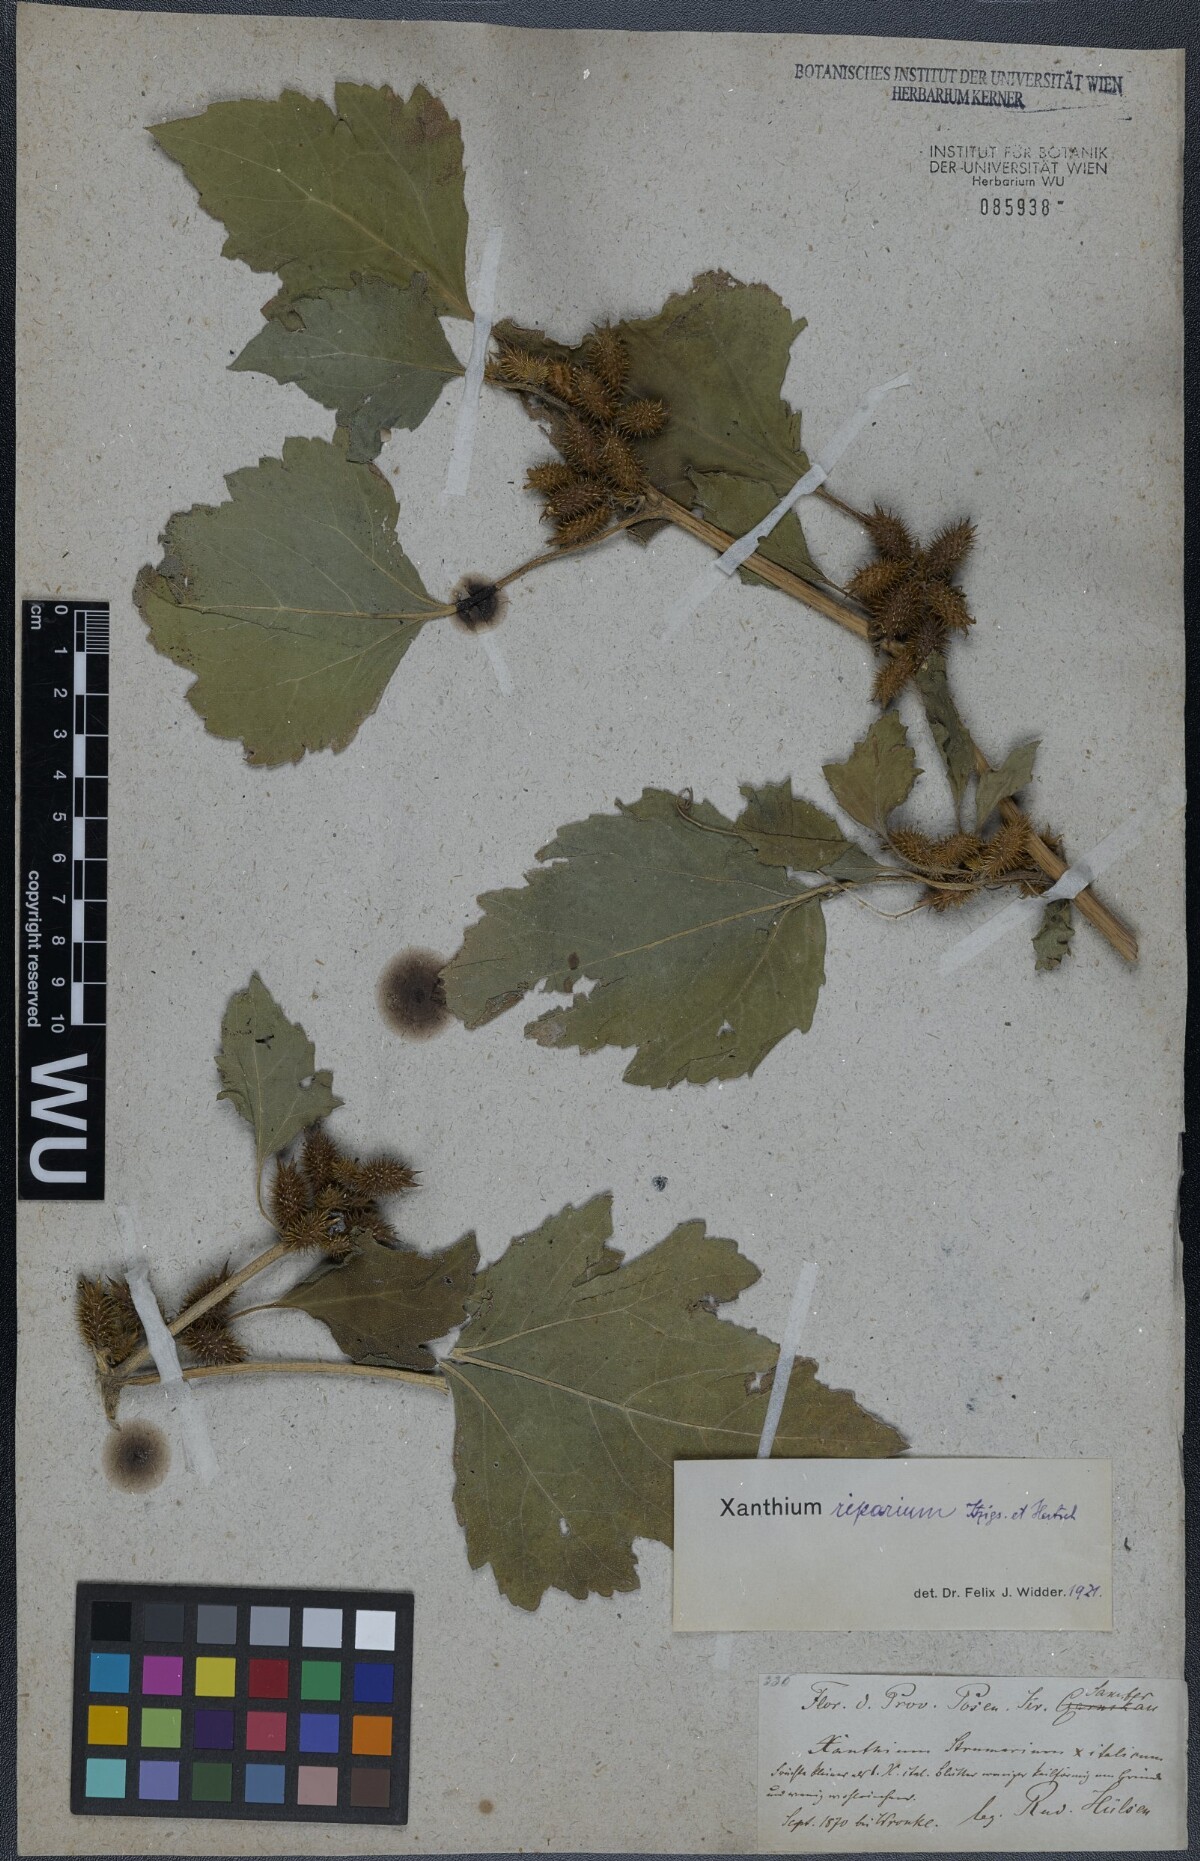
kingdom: Plantae
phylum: Tracheophyta
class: Magnoliopsida
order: Asterales
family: Asteraceae
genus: Xanthium
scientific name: Xanthium orientale
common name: Californian burr
